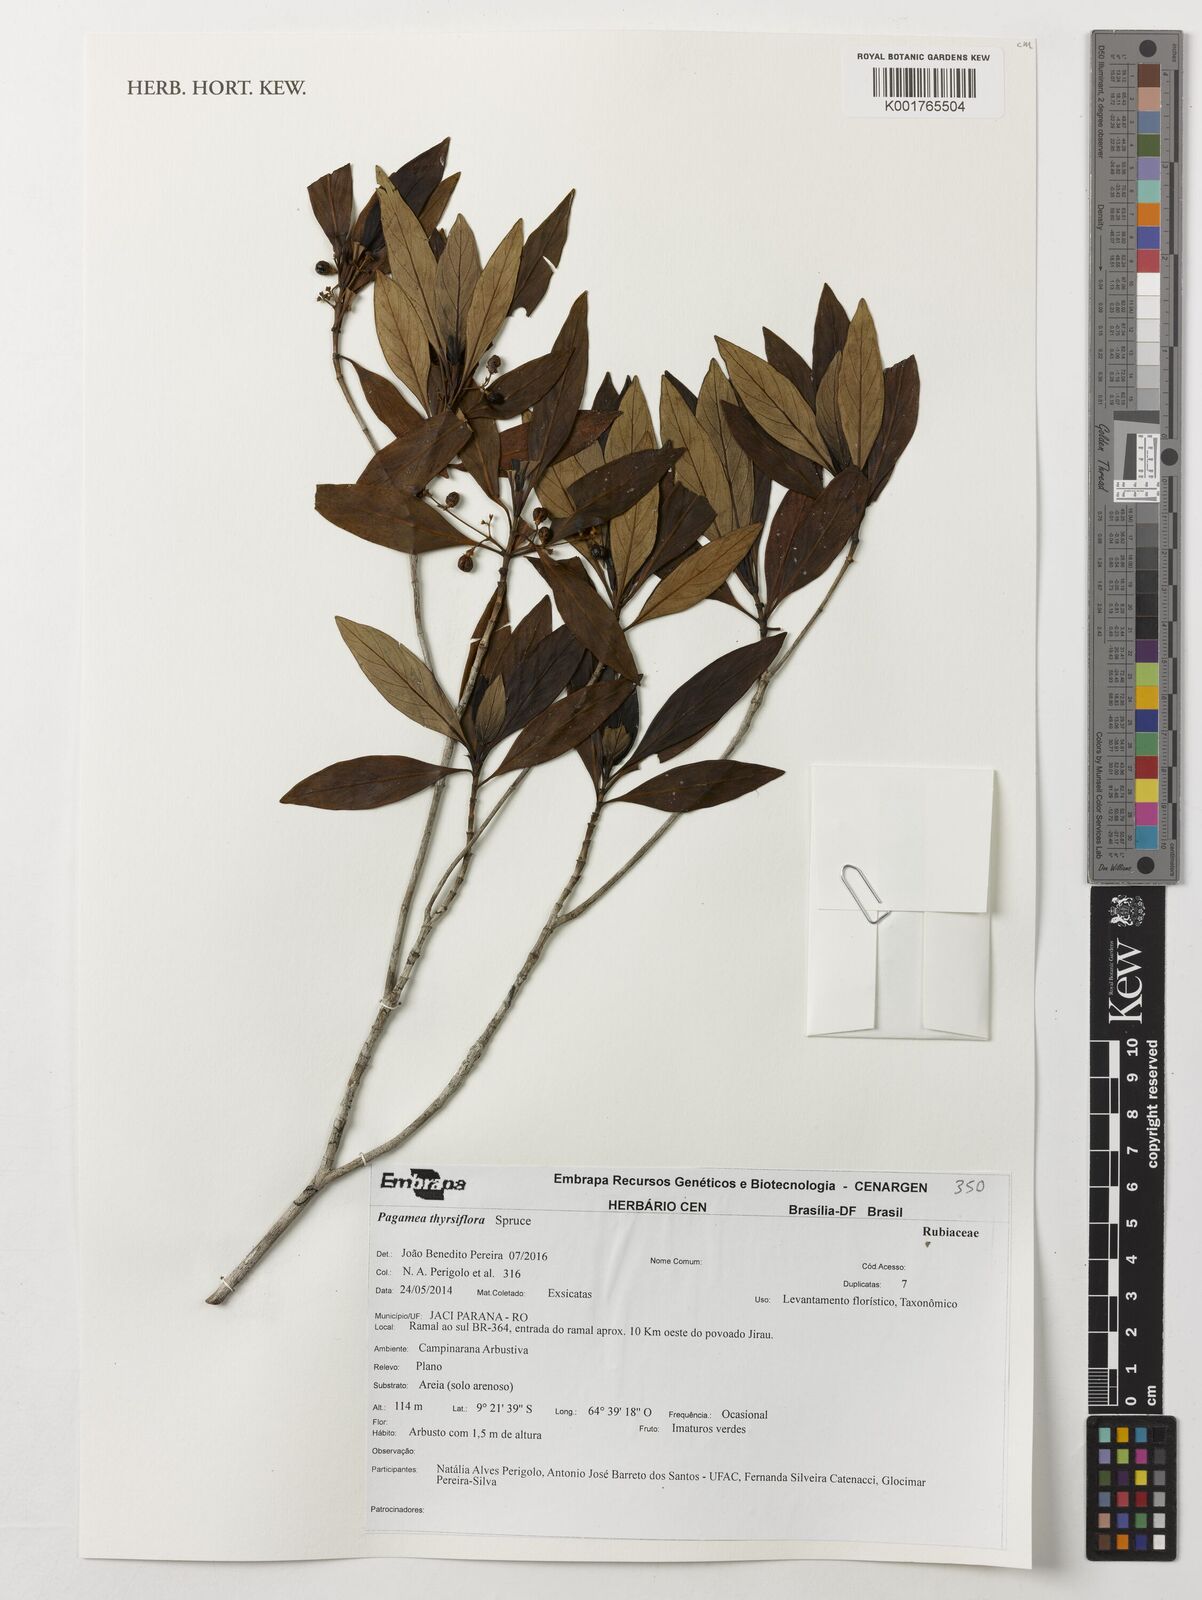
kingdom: Plantae
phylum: Tracheophyta
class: Magnoliopsida
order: Gentianales
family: Rubiaceae
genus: Pagamea
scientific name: Pagamea thyrsiflora
